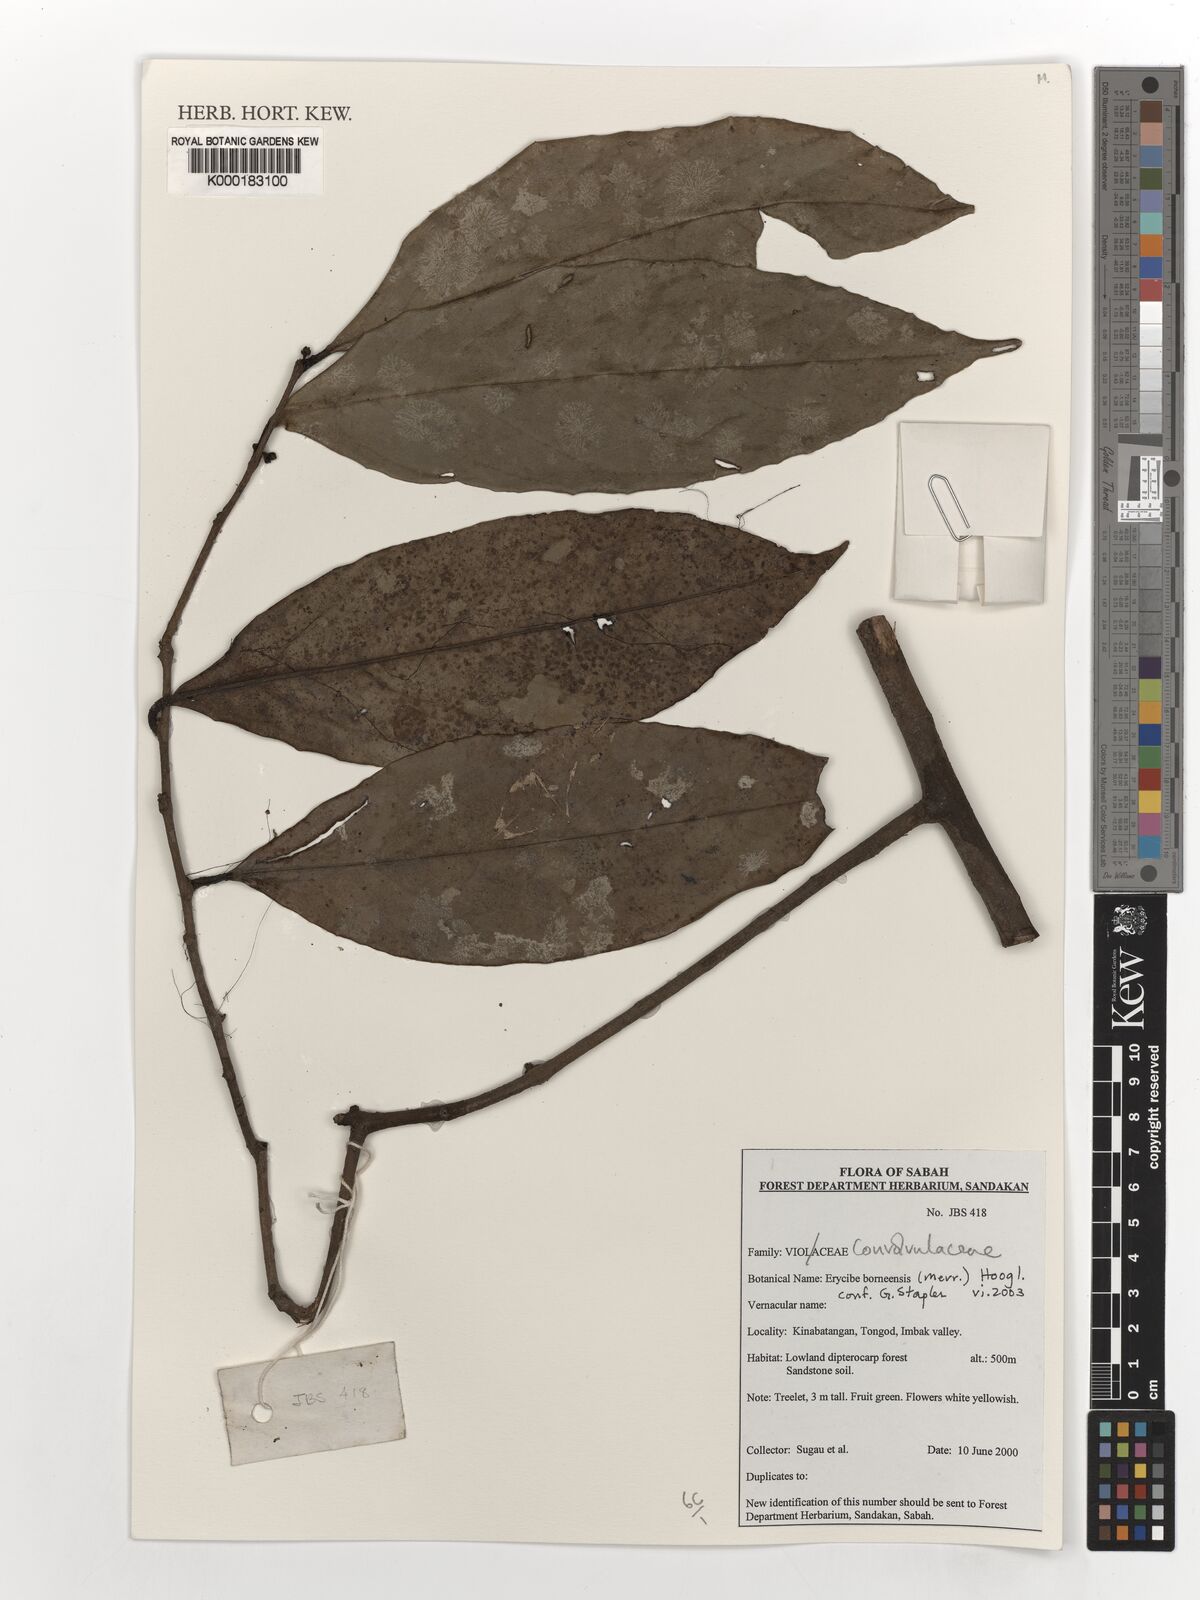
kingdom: Plantae
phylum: Tracheophyta
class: Magnoliopsida
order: Solanales
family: Convolvulaceae
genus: Erycibe
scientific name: Erycibe borneensis
